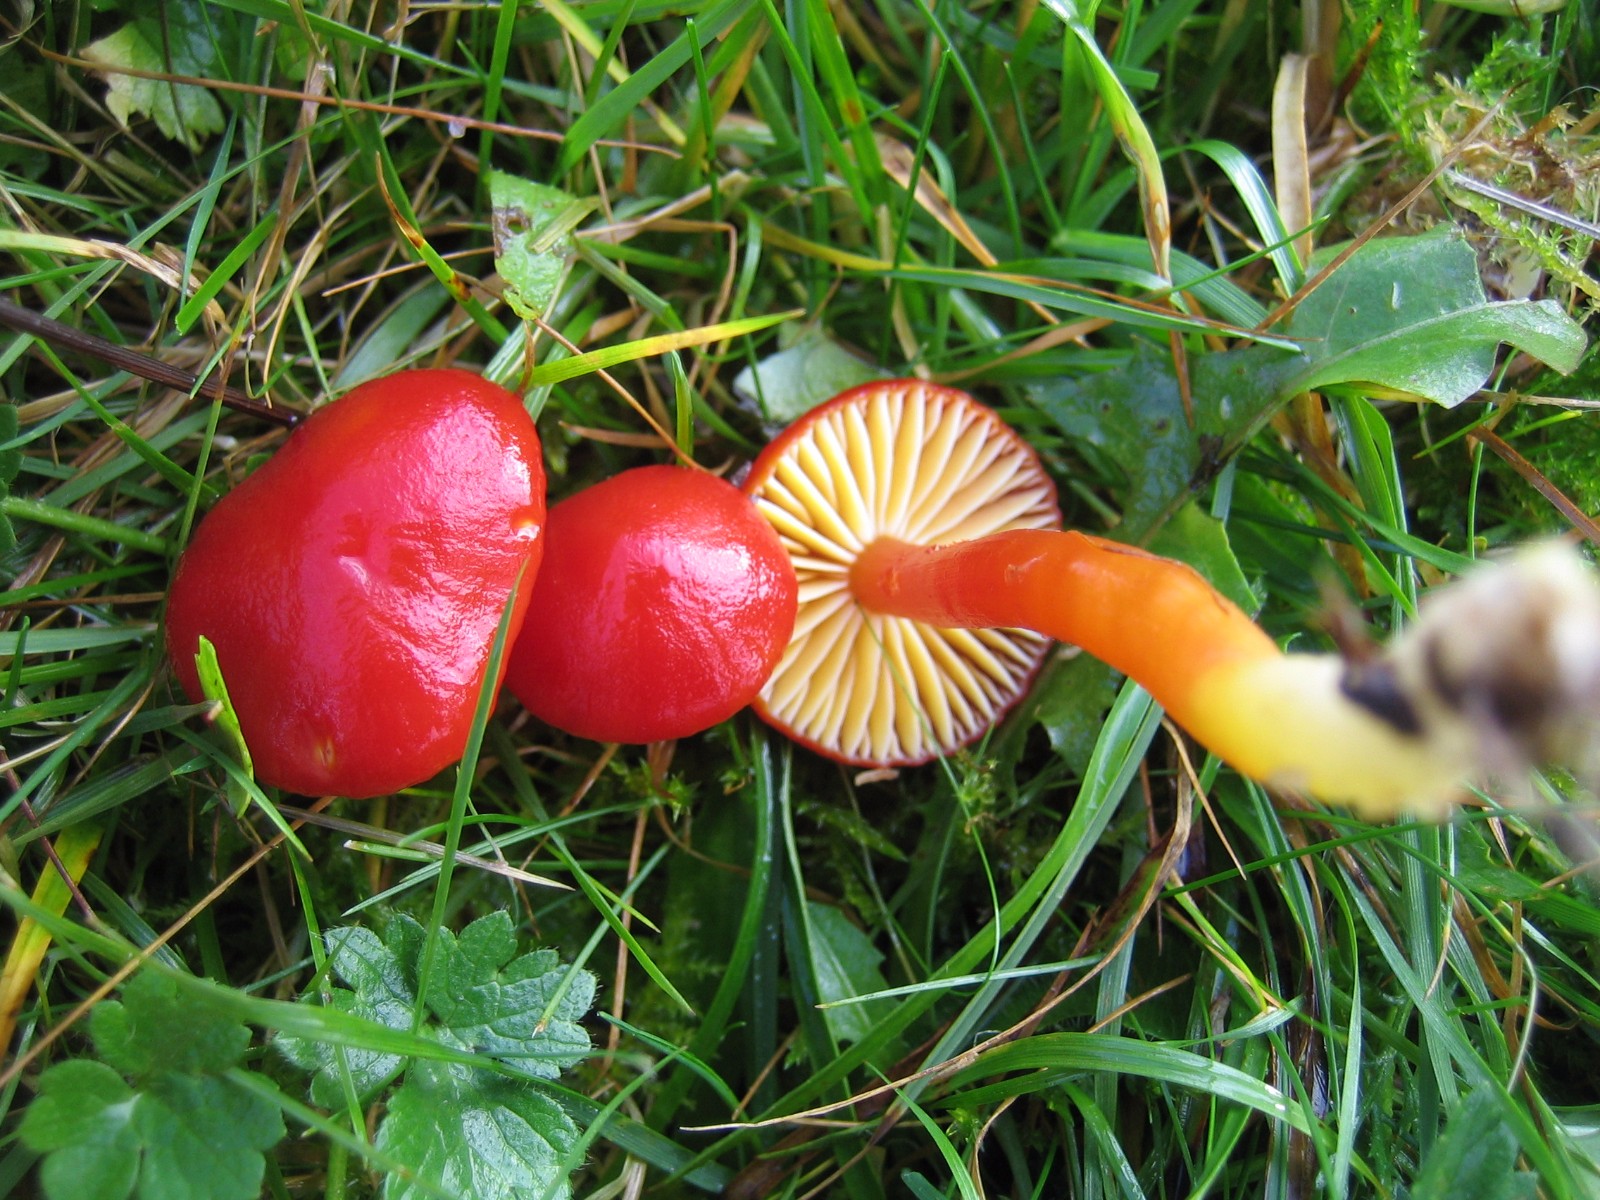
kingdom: Fungi
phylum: Basidiomycota
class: Agaricomycetes
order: Agaricales
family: Hygrophoraceae
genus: Hygrocybe
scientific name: Hygrocybe coccinea
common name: cinnober-vokshat
